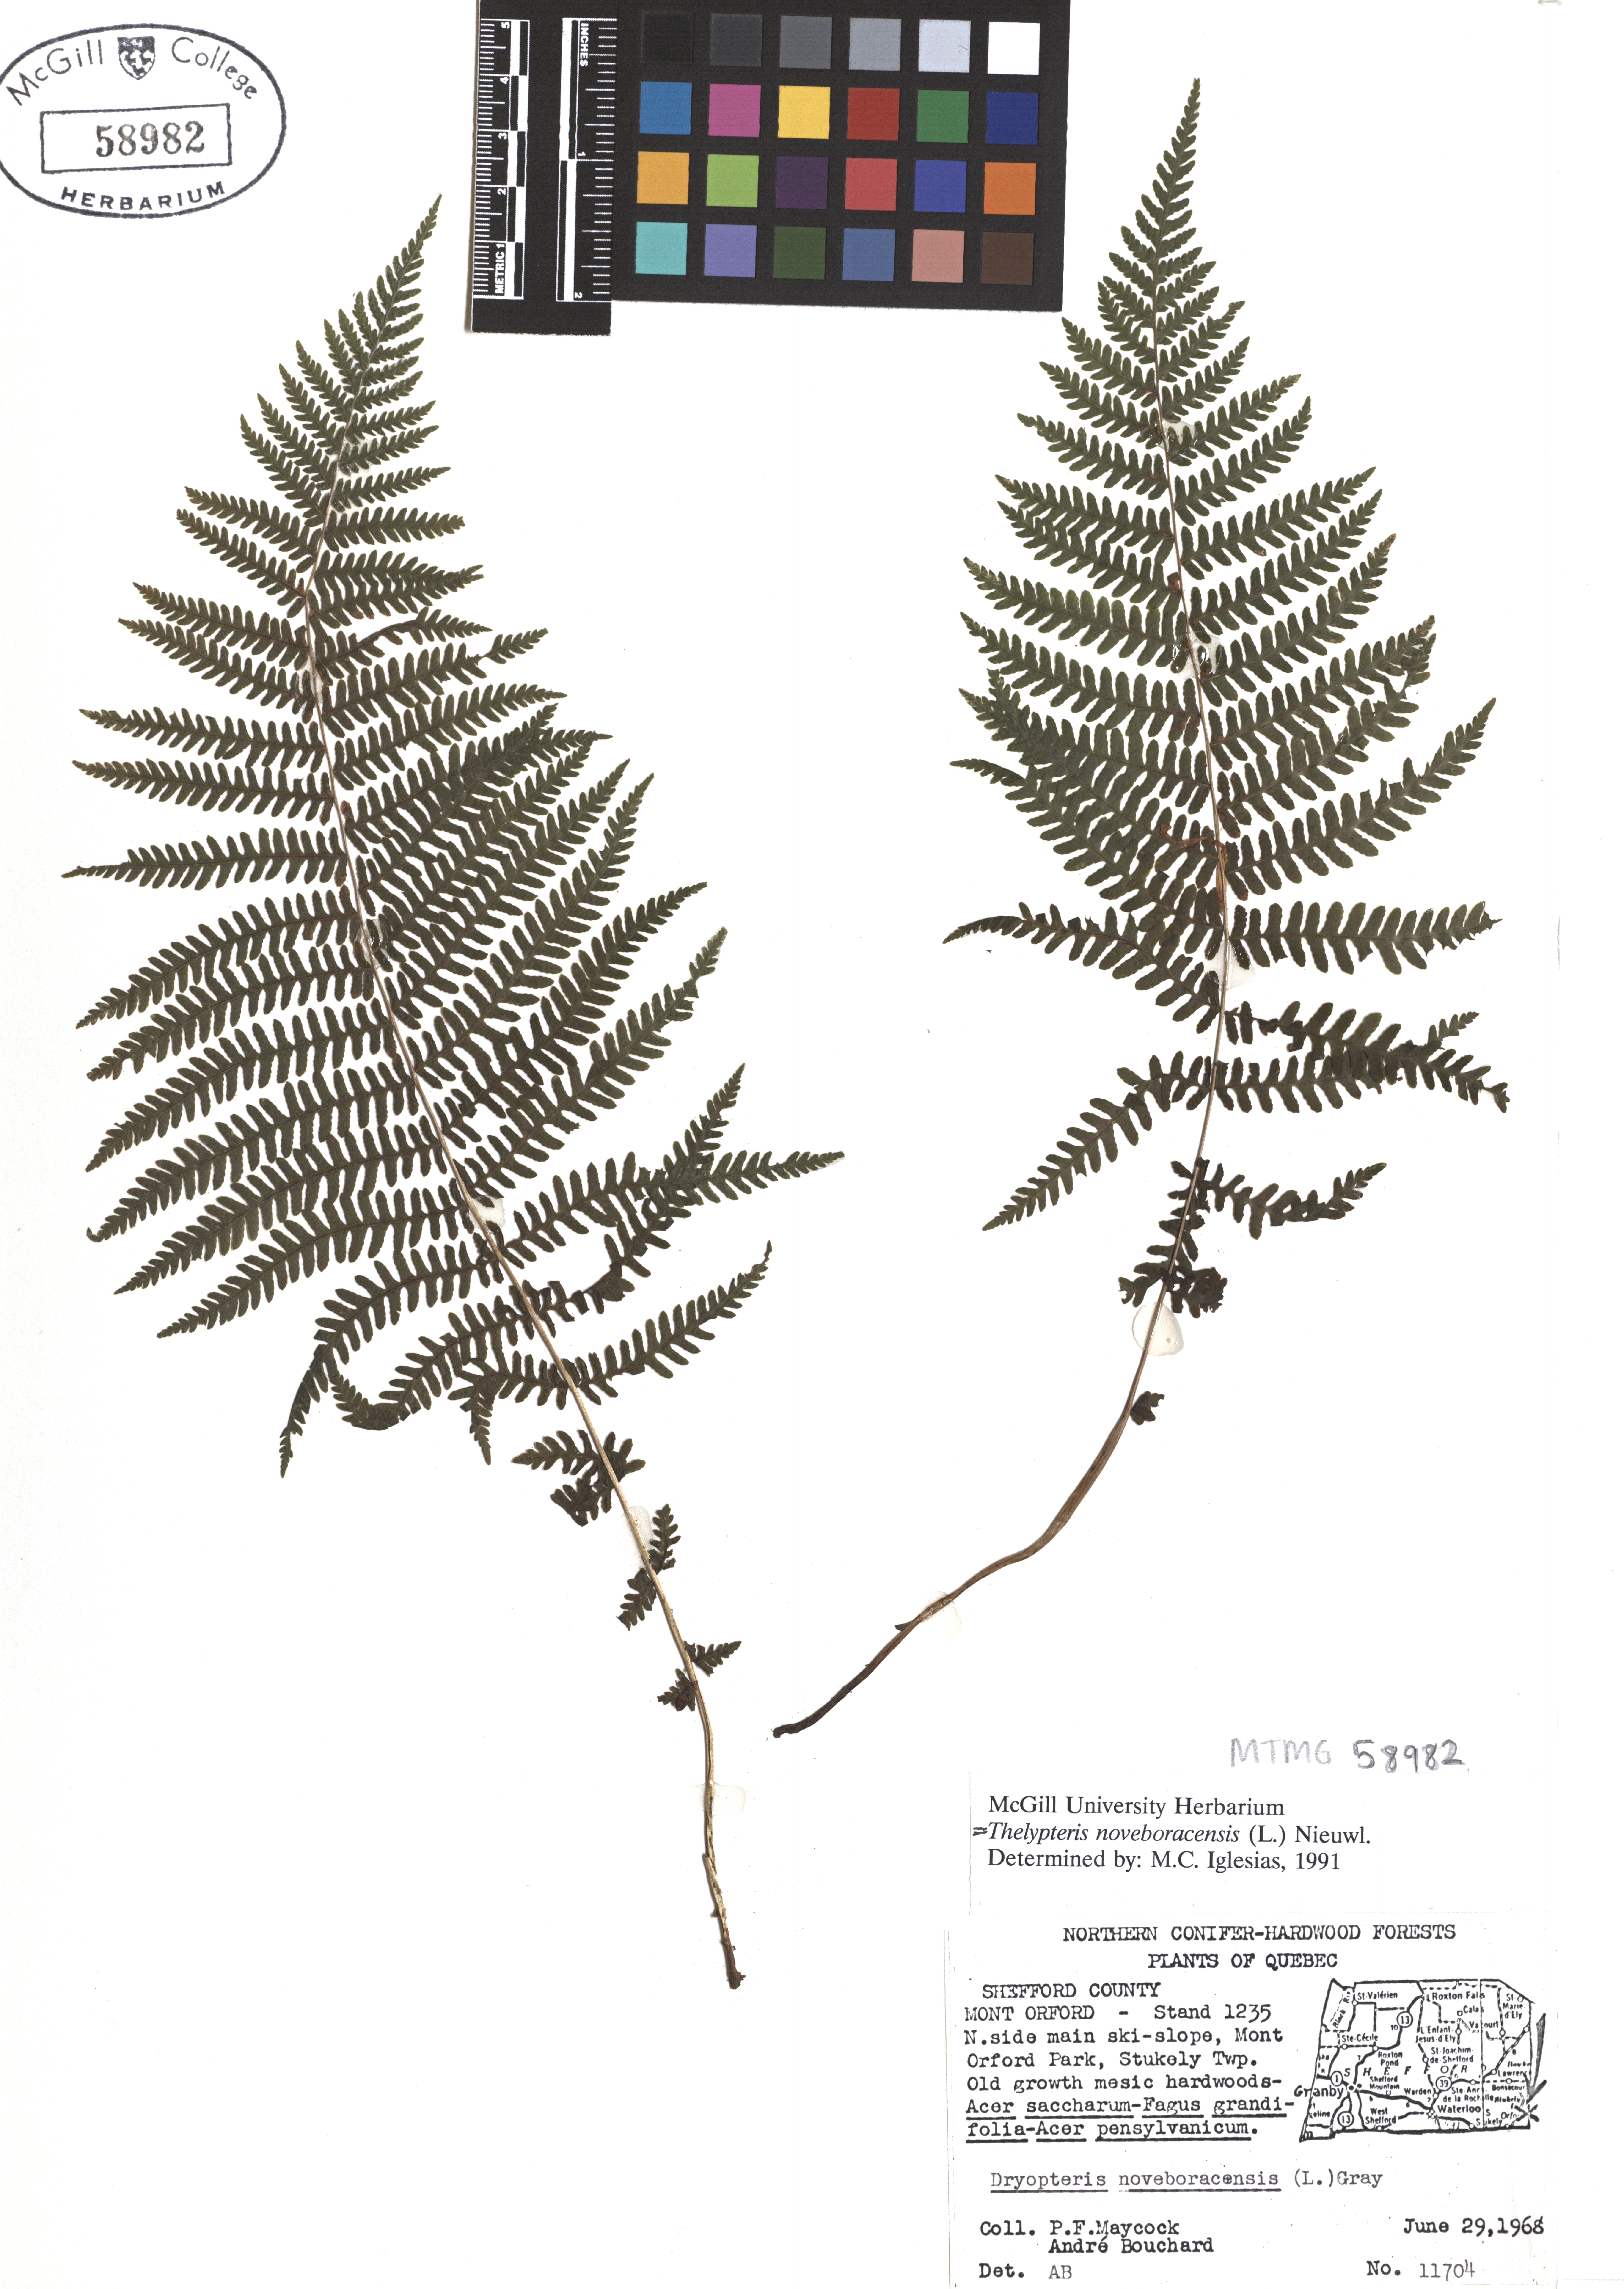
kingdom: Plantae
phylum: Tracheophyta
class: Polypodiopsida
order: Polypodiales
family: Thelypteridaceae
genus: Amauropelta
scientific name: Amauropelta noveboracensis
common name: New york fern
